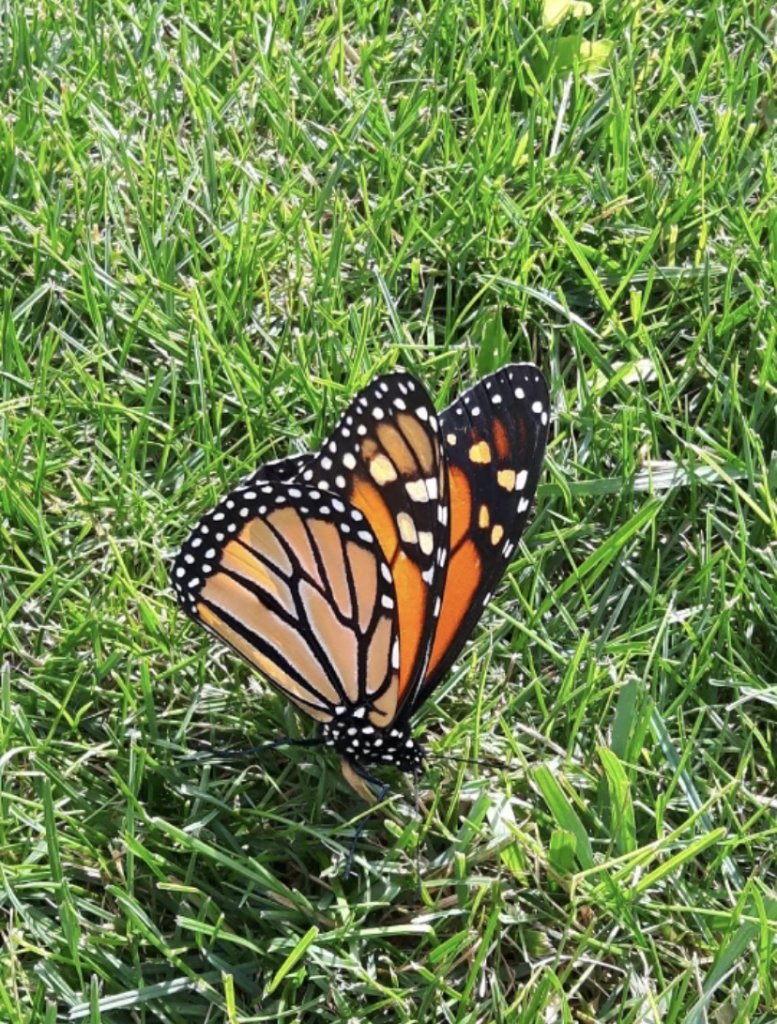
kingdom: Animalia
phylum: Arthropoda
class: Insecta
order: Lepidoptera
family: Nymphalidae
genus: Danaus
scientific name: Danaus plexippus
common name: Monarch
